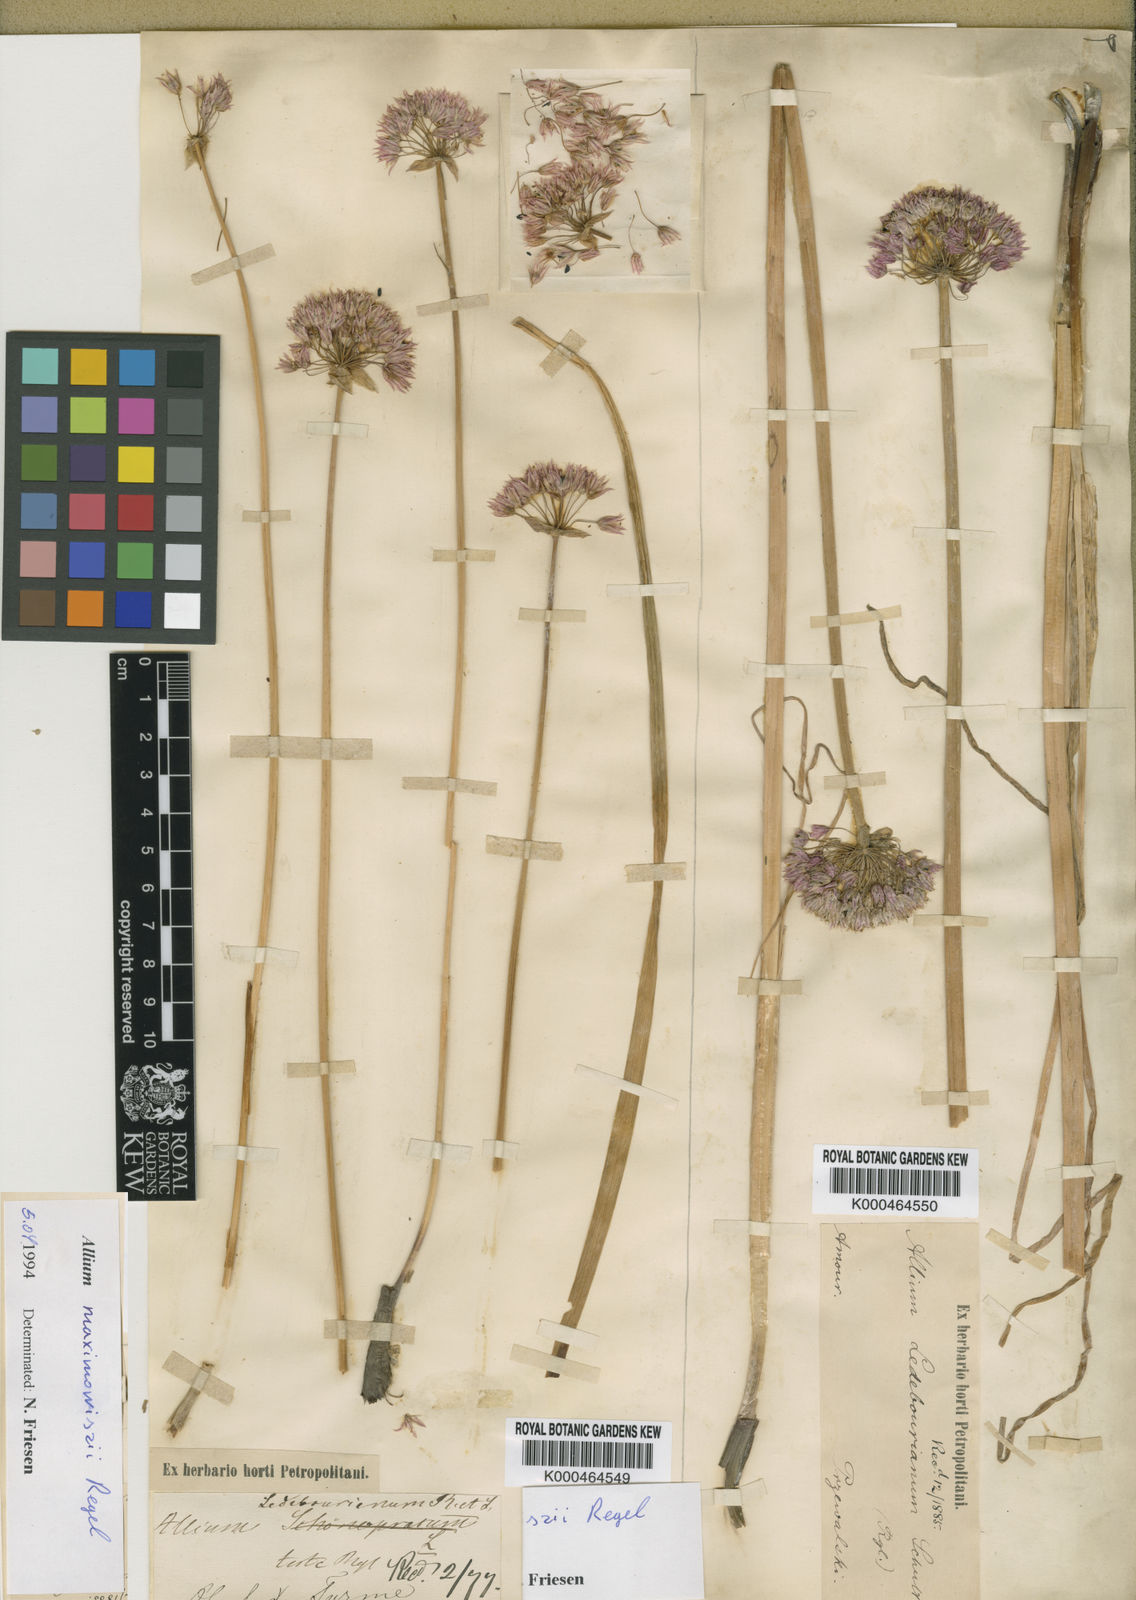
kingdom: Plantae
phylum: Tracheophyta
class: Liliopsida
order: Asparagales
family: Amaryllidaceae
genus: Allium
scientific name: Allium ledebourianum
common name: Ledebour chive
